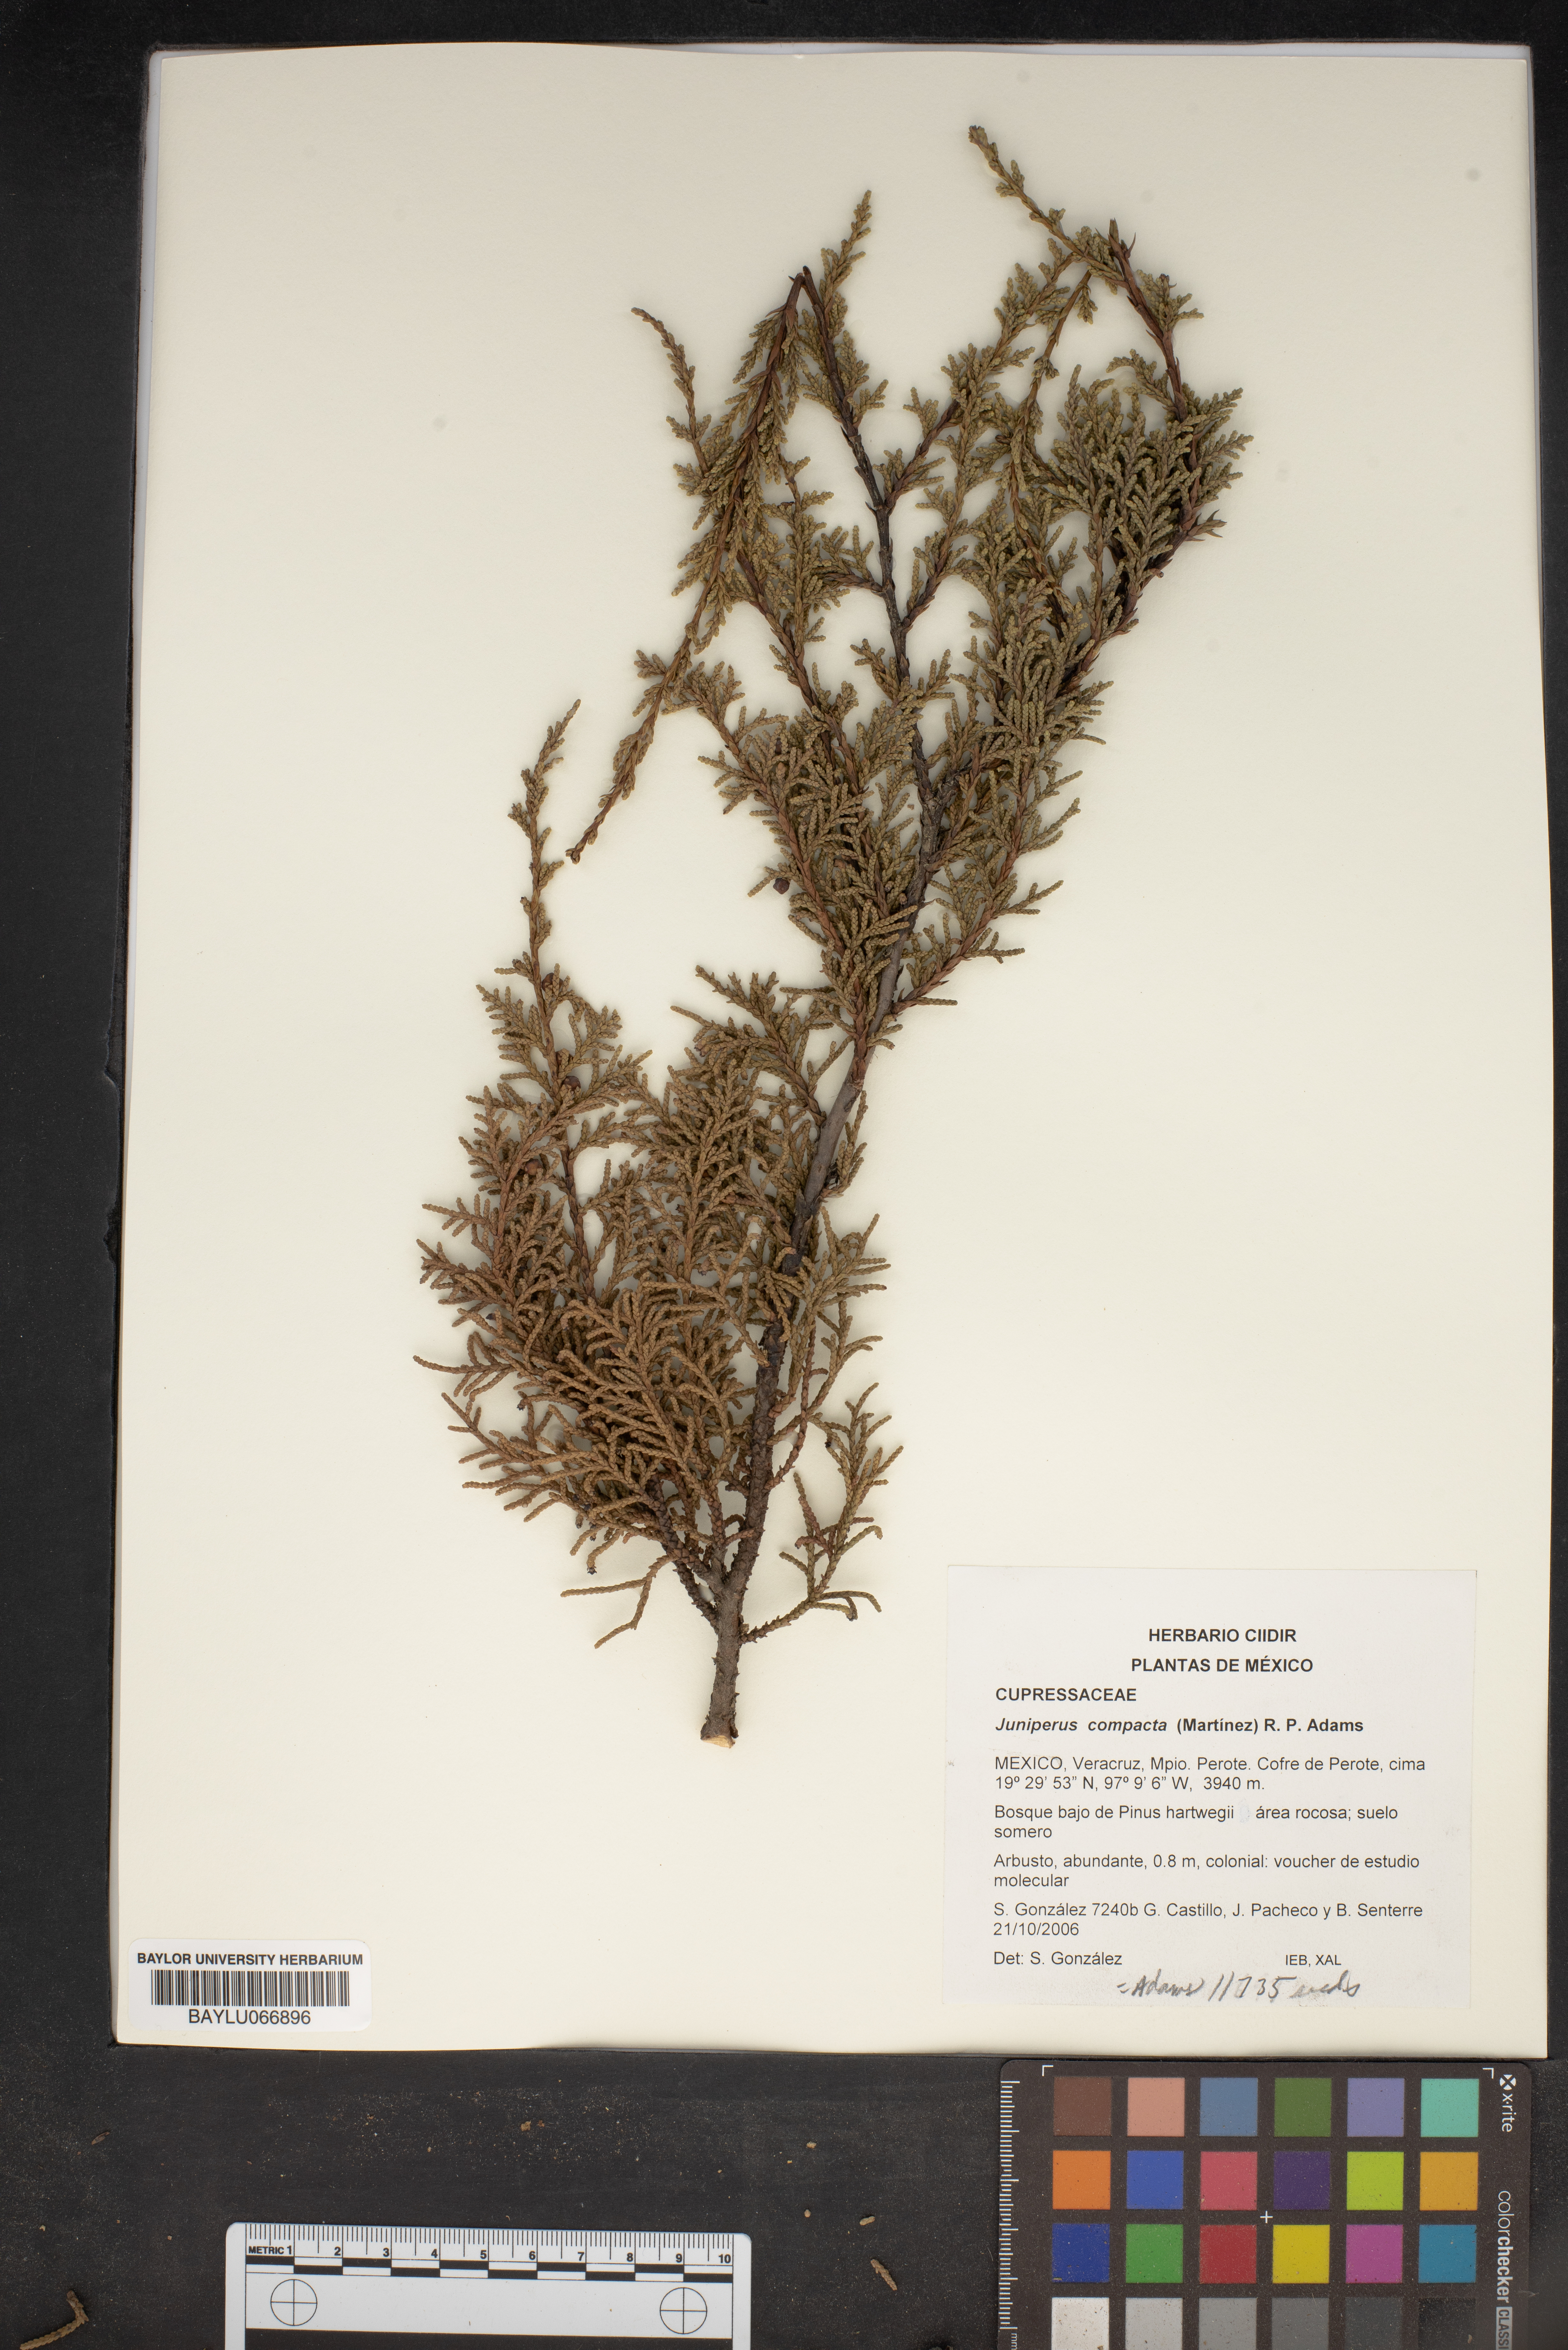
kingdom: Plantae
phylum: Tracheophyta
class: Pinopsida
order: Pinales
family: Cupressaceae
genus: Juniperus
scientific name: Juniperus monticola
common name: Mexican juniper
